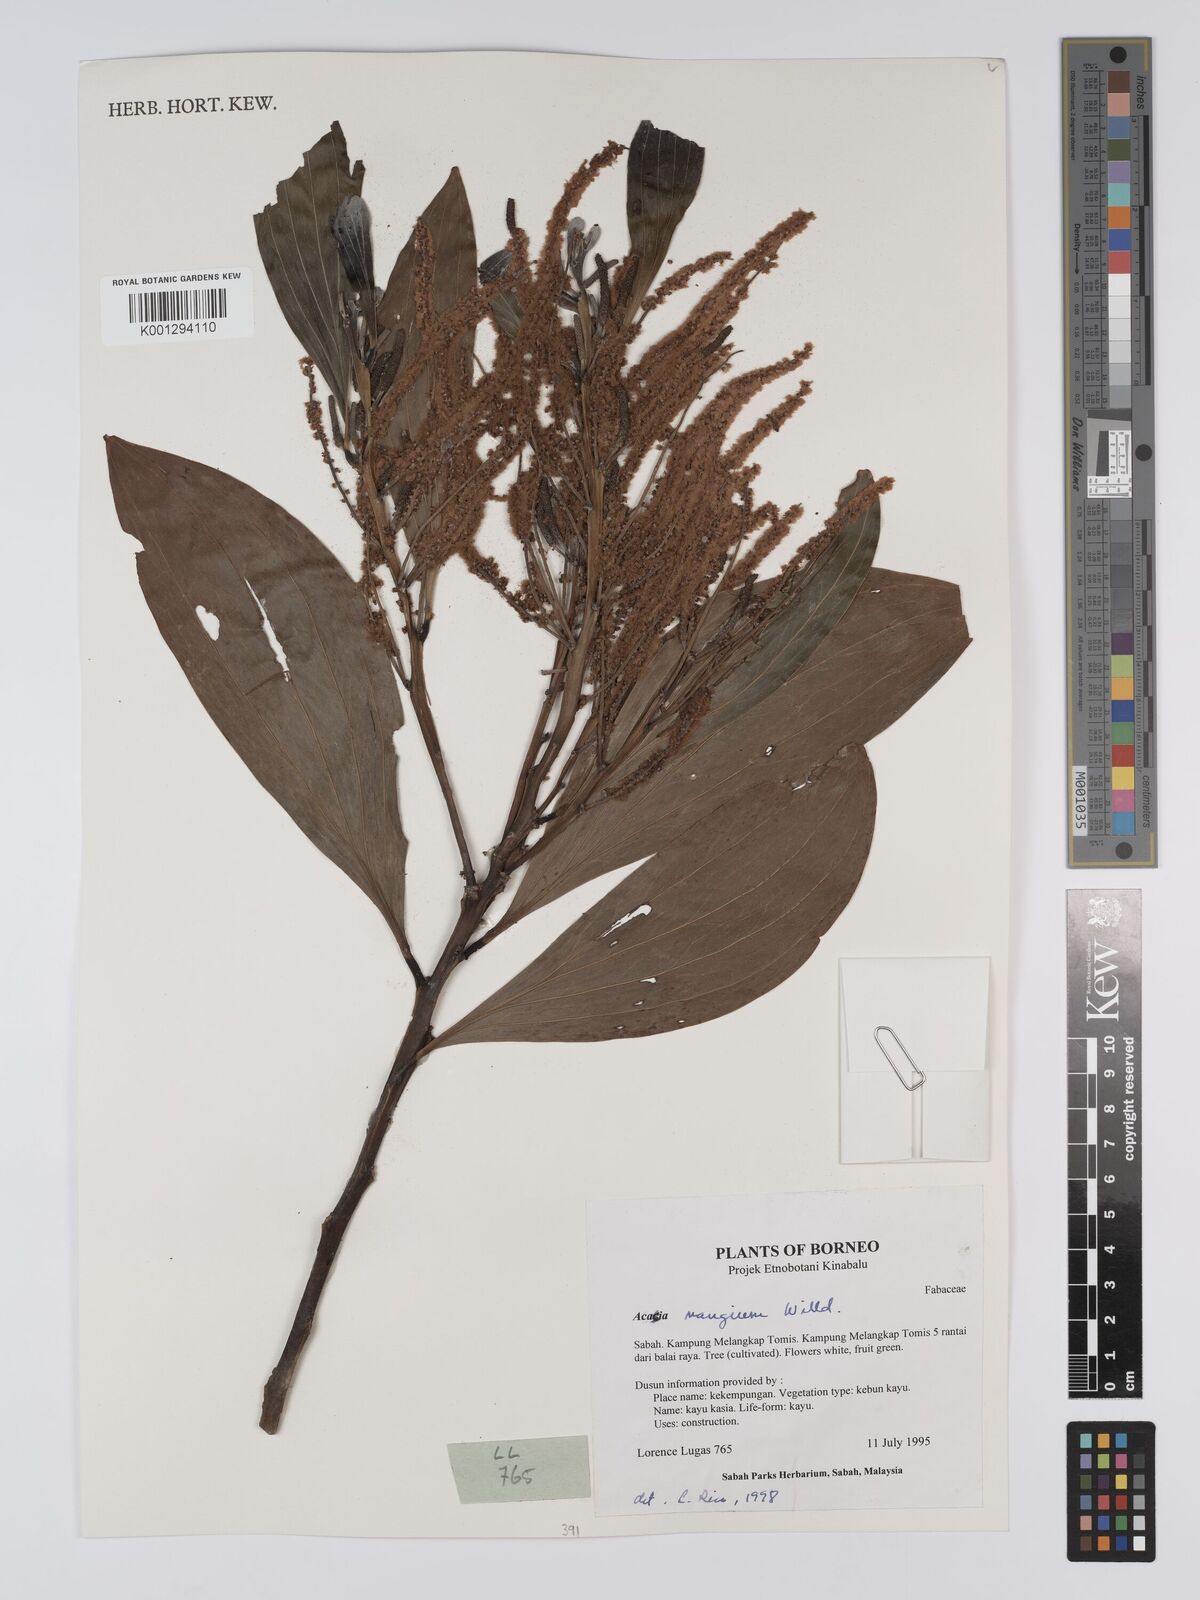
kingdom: Plantae
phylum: Tracheophyta
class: Magnoliopsida
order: Fabales
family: Fabaceae
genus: Acacia
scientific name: Acacia mangium
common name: Black wattle
